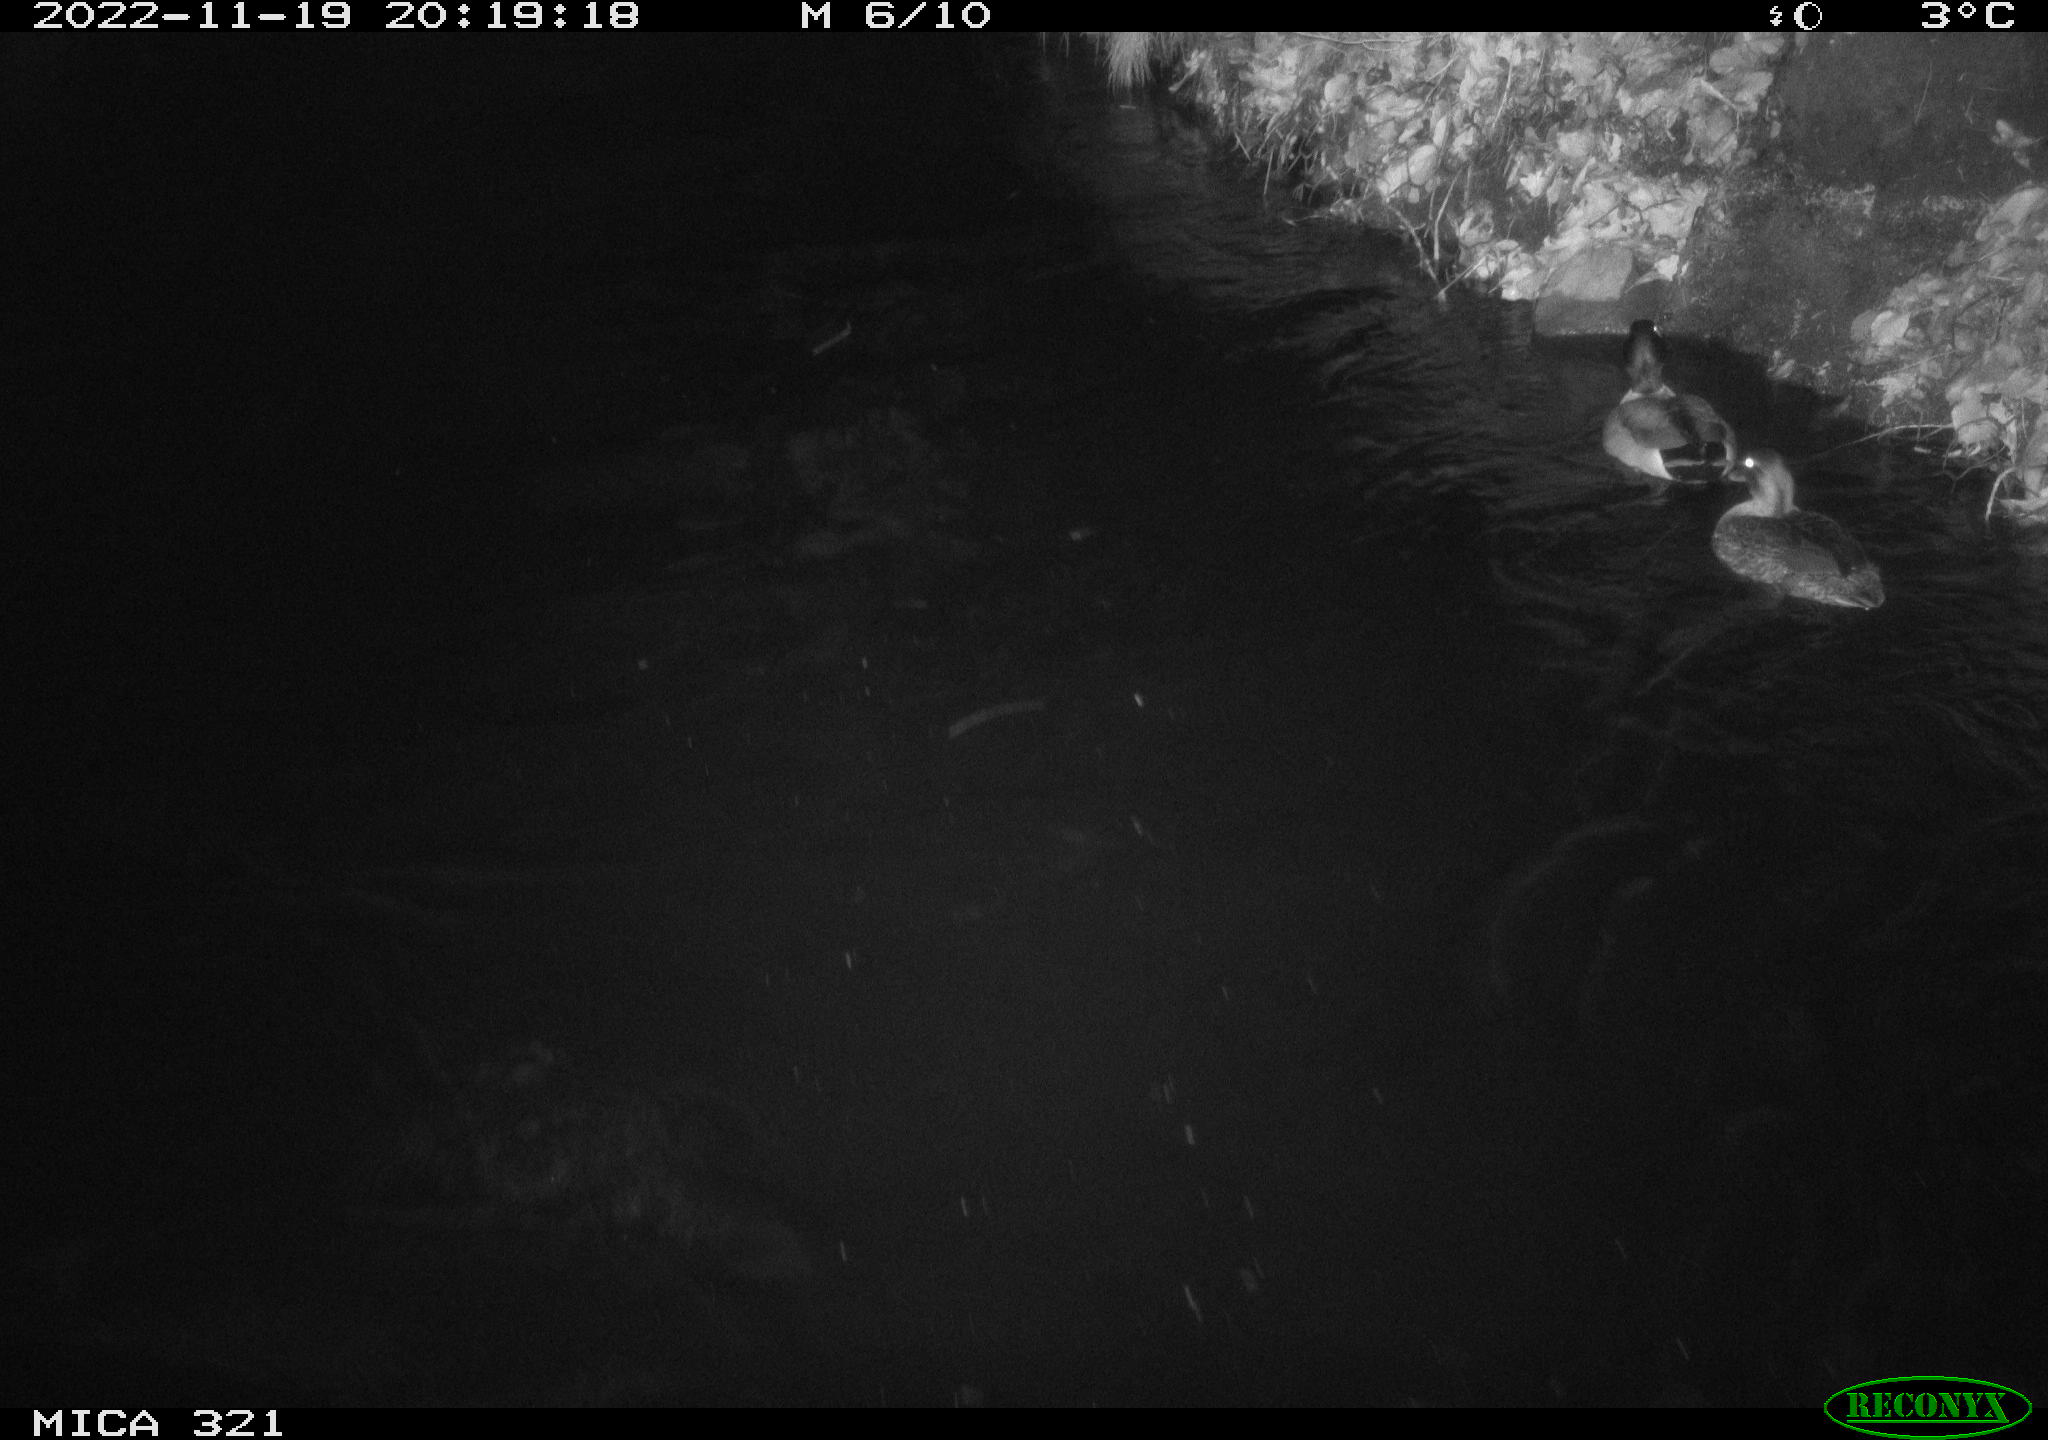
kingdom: Animalia
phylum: Chordata
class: Aves
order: Anseriformes
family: Anatidae
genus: Anas
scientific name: Anas
